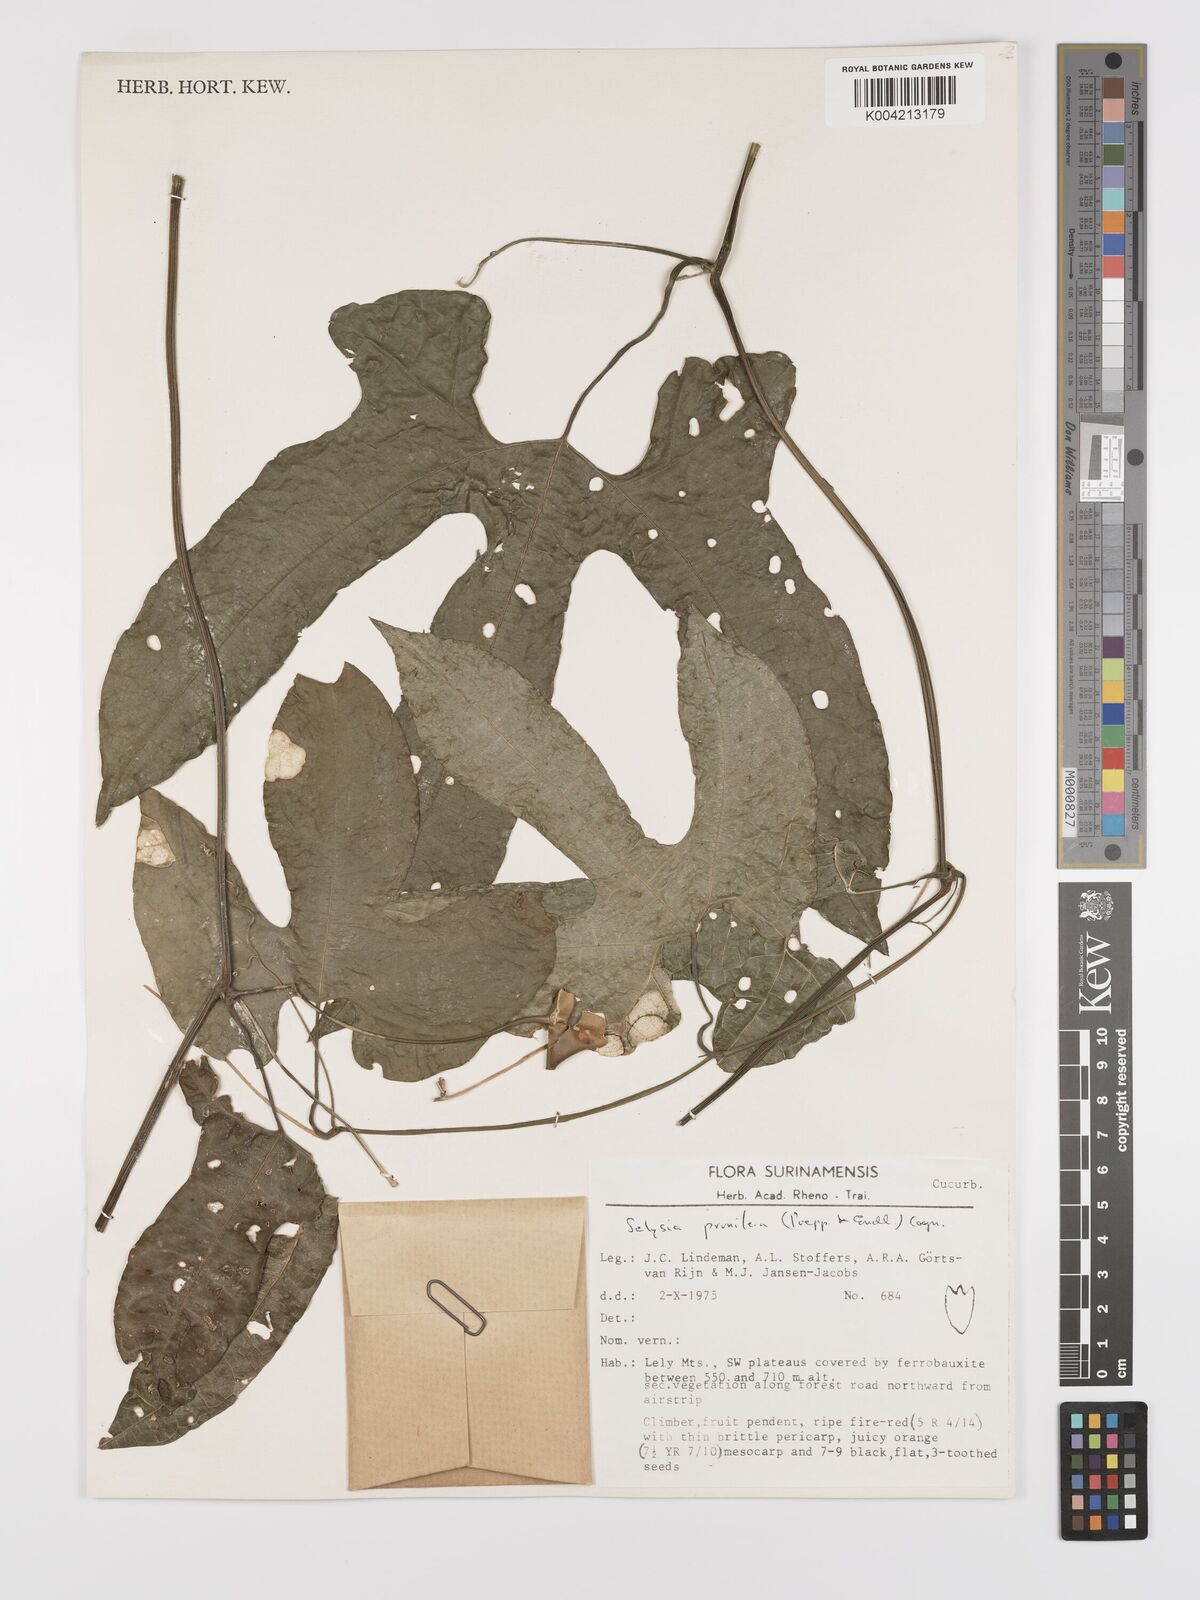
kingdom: Plantae
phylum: Tracheophyta
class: Magnoliopsida
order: Cucurbitales
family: Cucurbitaceae
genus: Cayaponia
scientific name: Cayaponia prunifera
